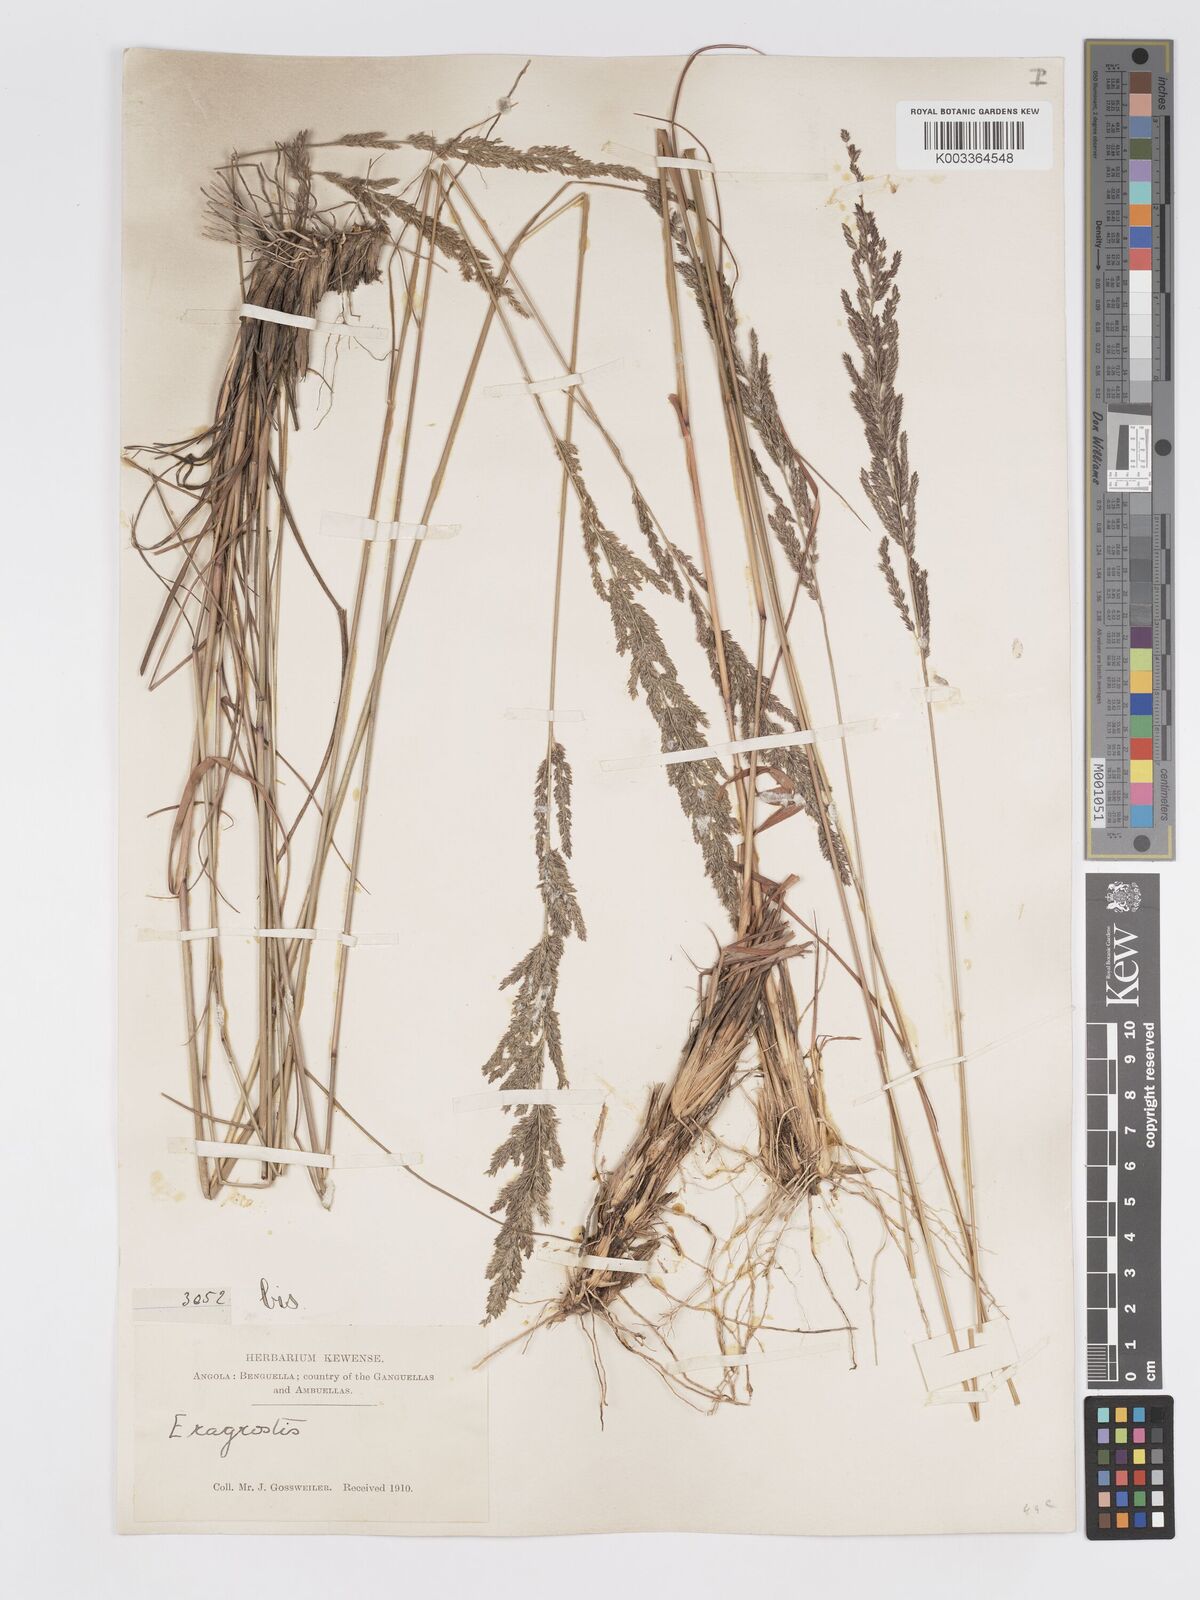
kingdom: Plantae
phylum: Tracheophyta
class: Liliopsida
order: Poales
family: Poaceae
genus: Eragrostis
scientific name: Eragrostis brainii
